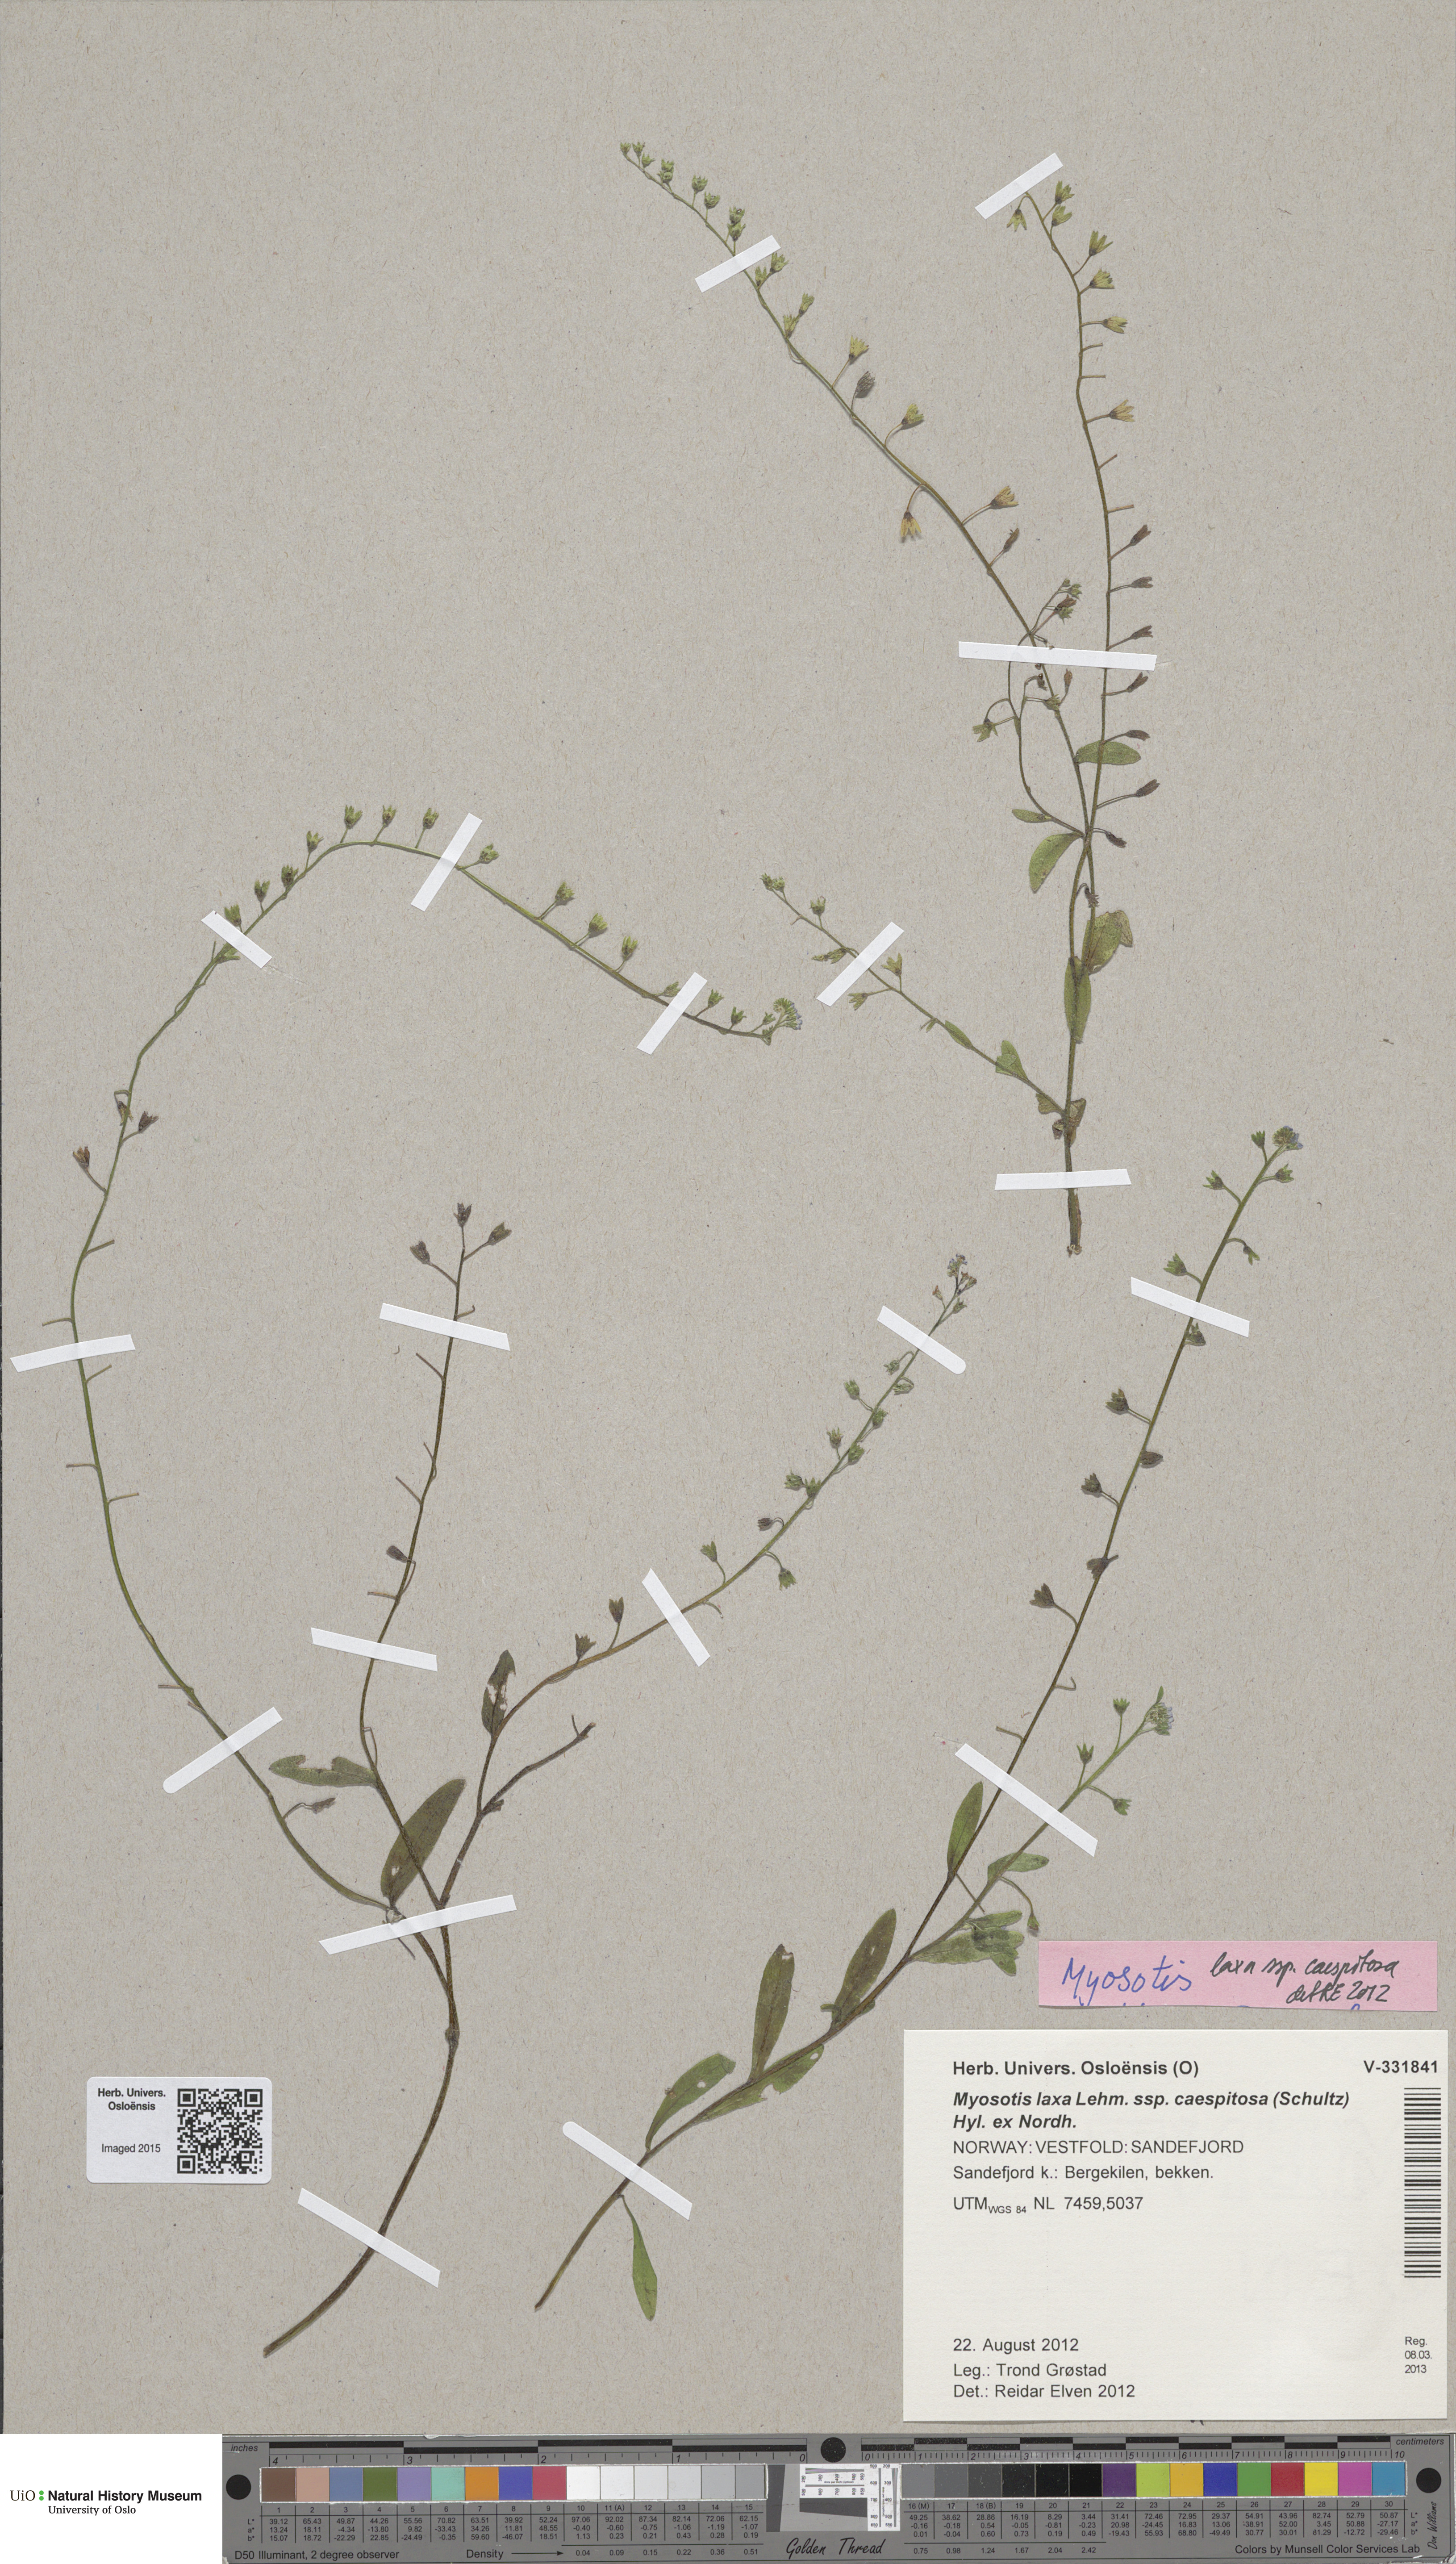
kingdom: Plantae
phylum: Tracheophyta
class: Magnoliopsida
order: Boraginales
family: Boraginaceae
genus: Myosotis
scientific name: Myosotis laxa
